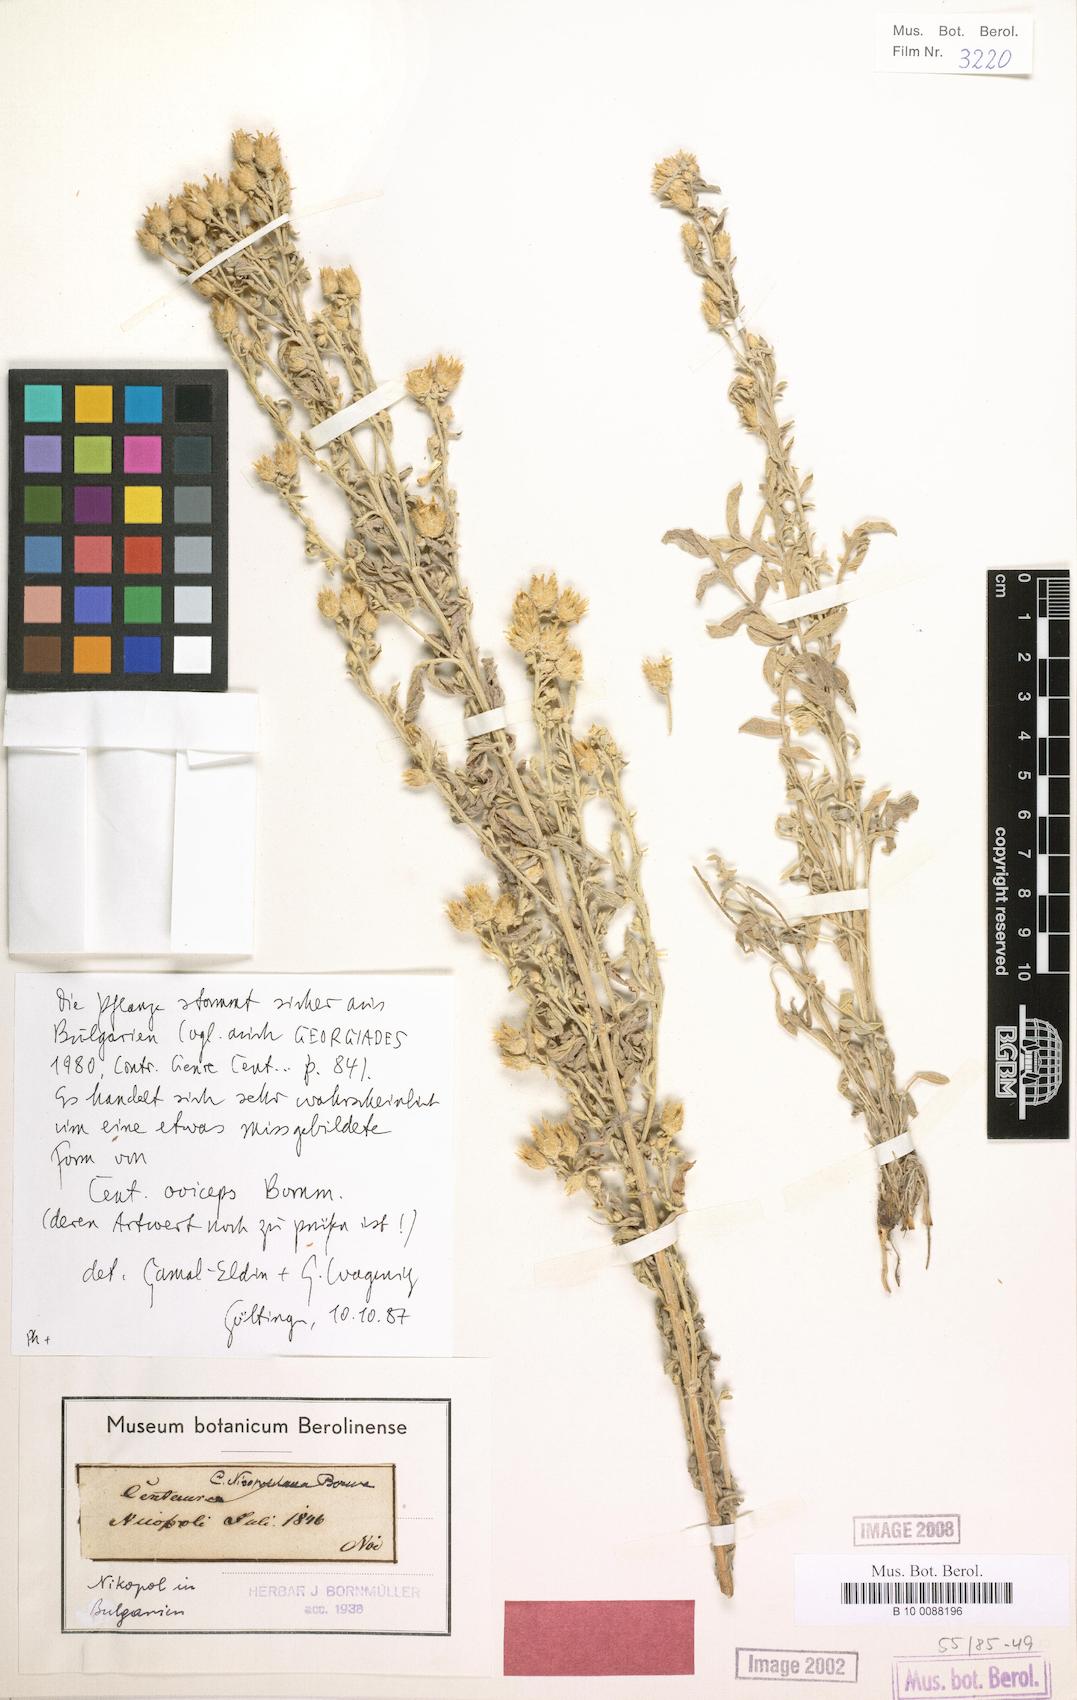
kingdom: Plantae
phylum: Tracheophyta
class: Magnoliopsida
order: Asterales
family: Asteraceae
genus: Centaurea
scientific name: Centaurea cuneifolia
